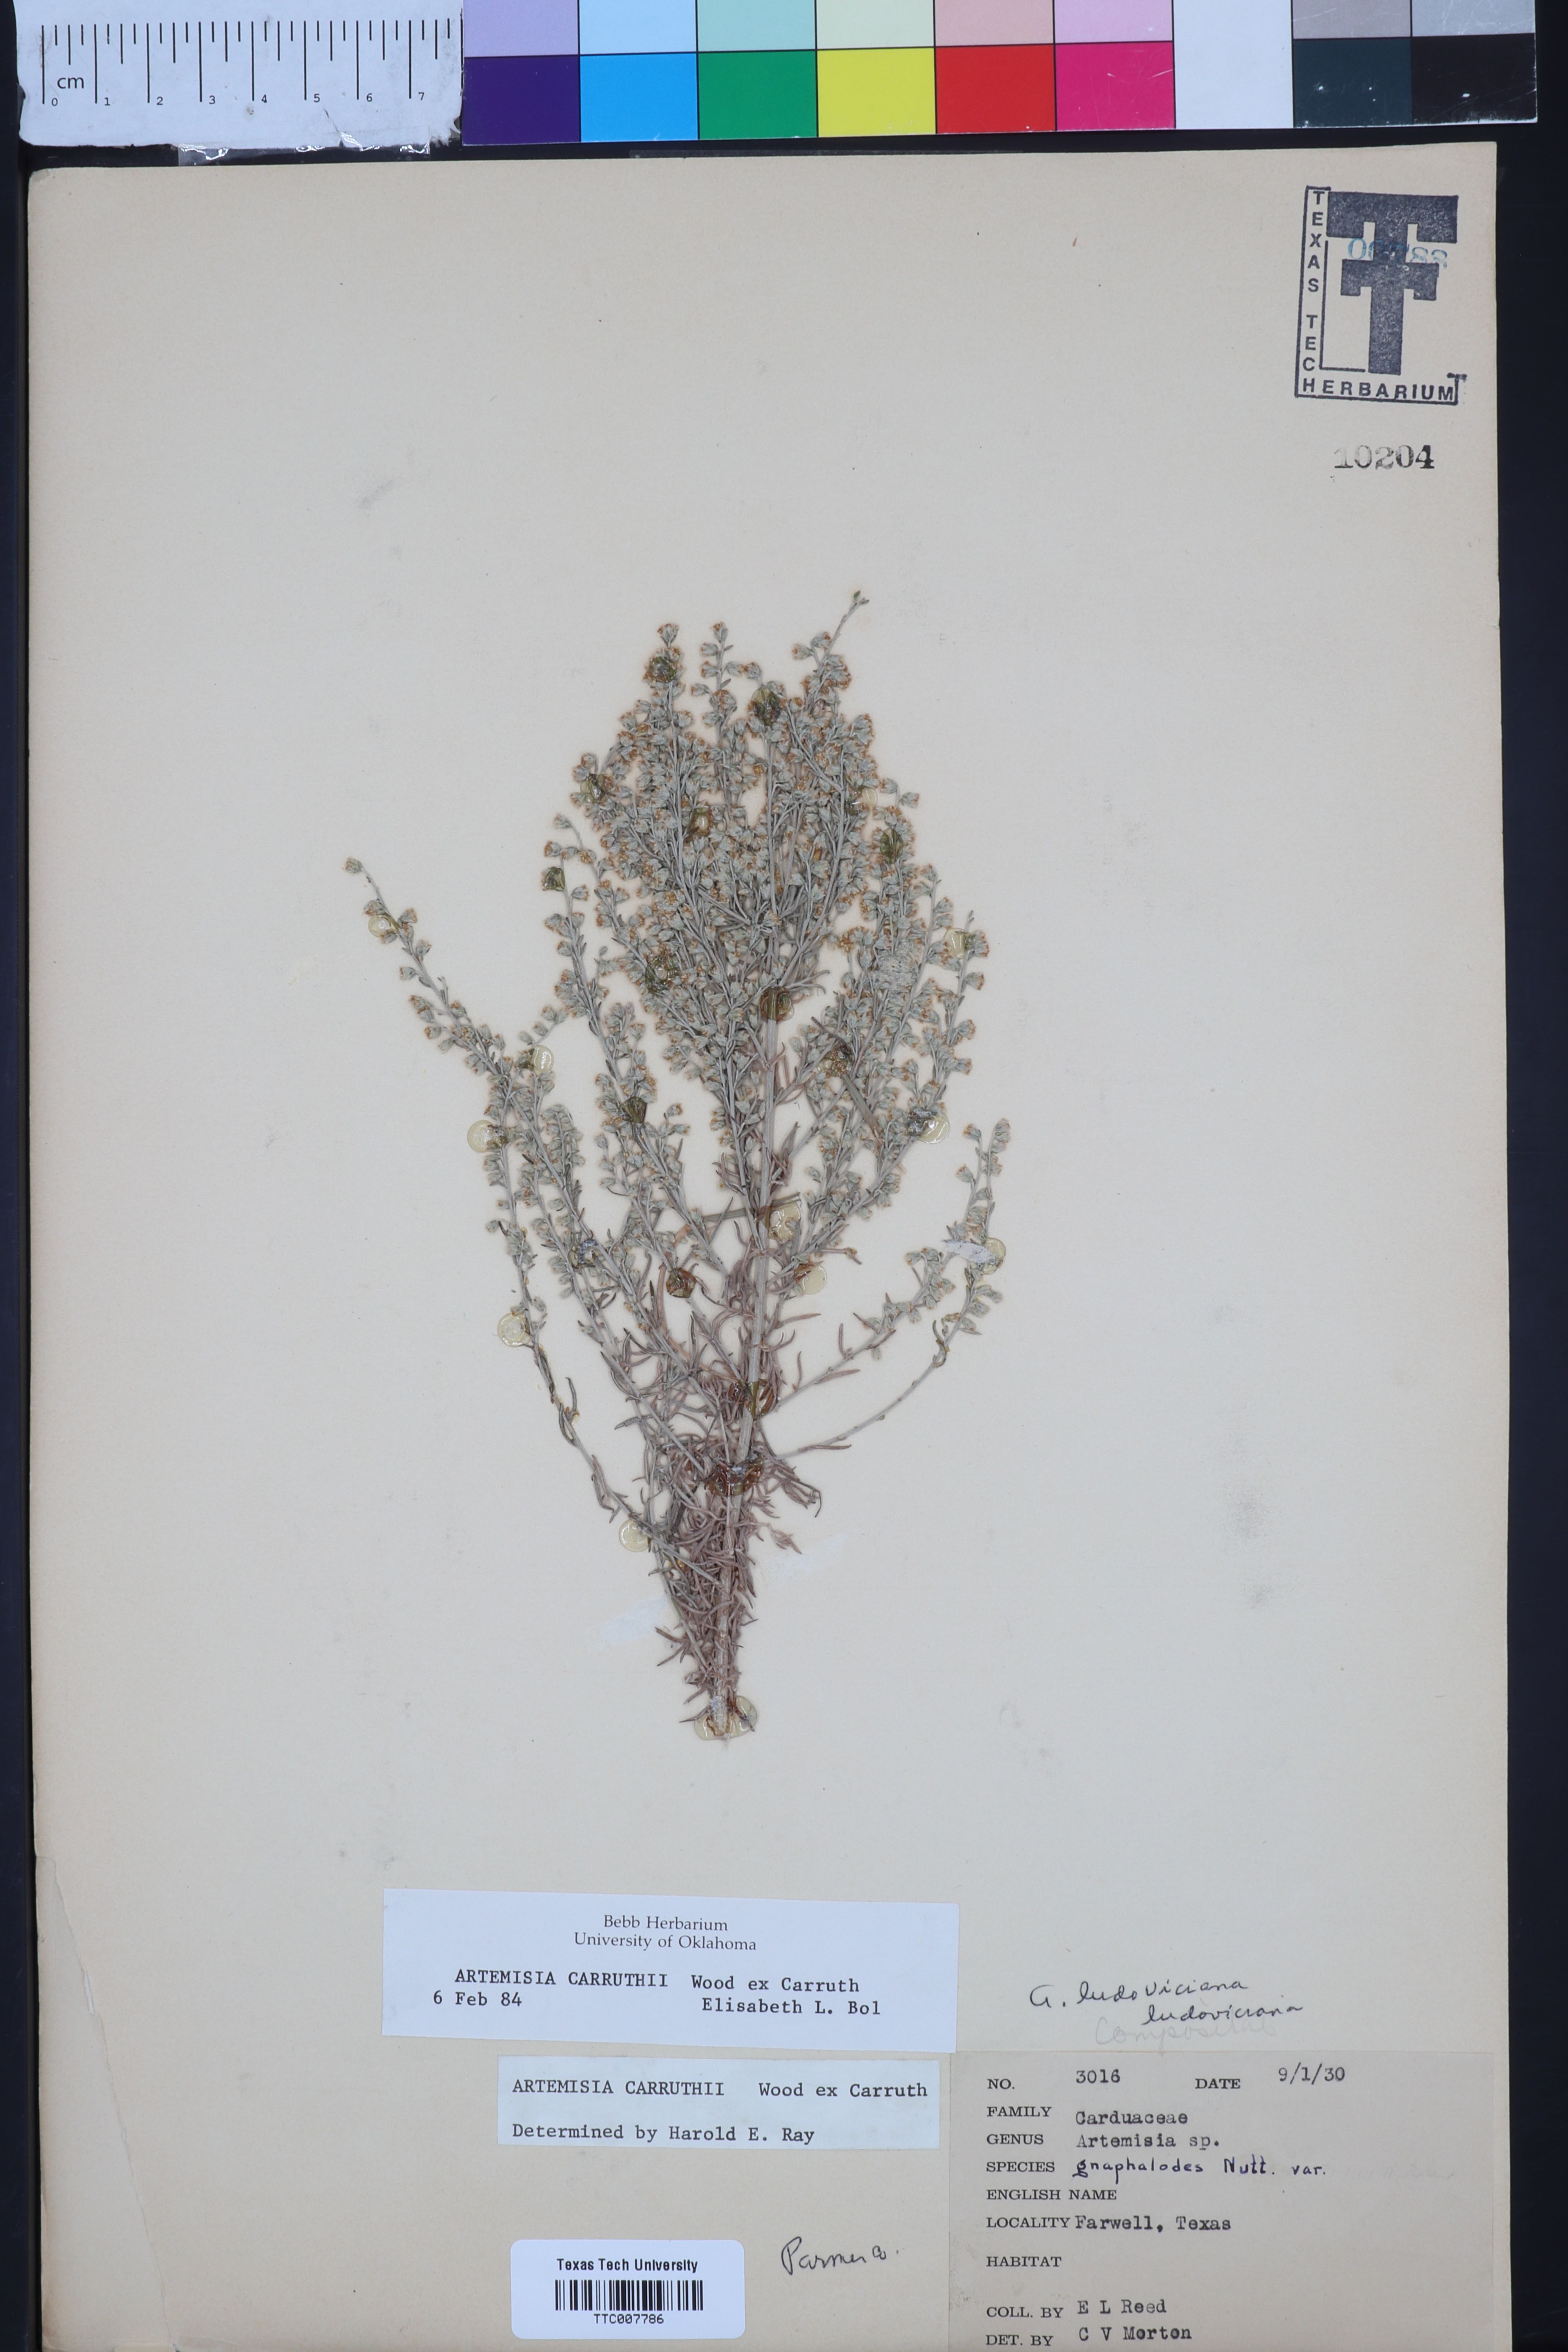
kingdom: Plantae
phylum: Tracheophyta
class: Magnoliopsida
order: Asterales
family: Asteraceae
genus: Artemisia
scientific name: Artemisia carruthii
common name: Carruth wormwood
